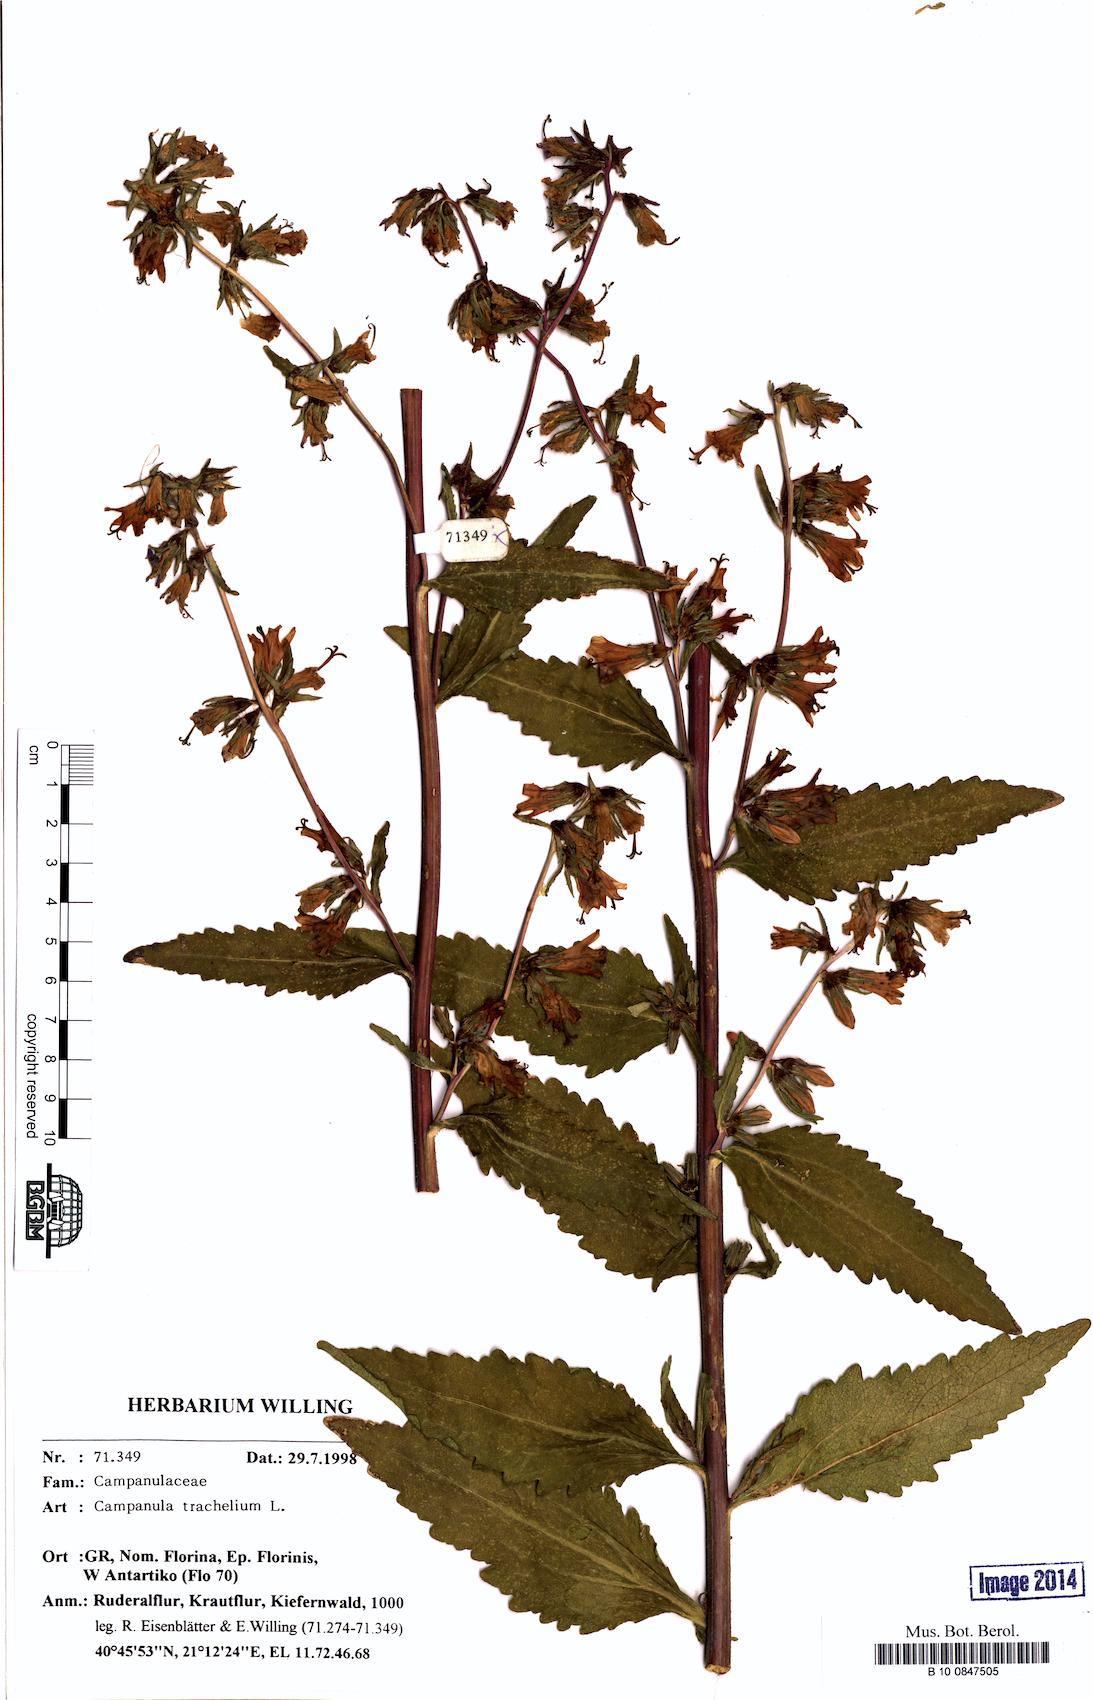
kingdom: Plantae
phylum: Tracheophyta
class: Magnoliopsida
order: Asterales
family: Campanulaceae
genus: Campanula
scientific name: Campanula trachelium
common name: Nettle-leaved bellflower
